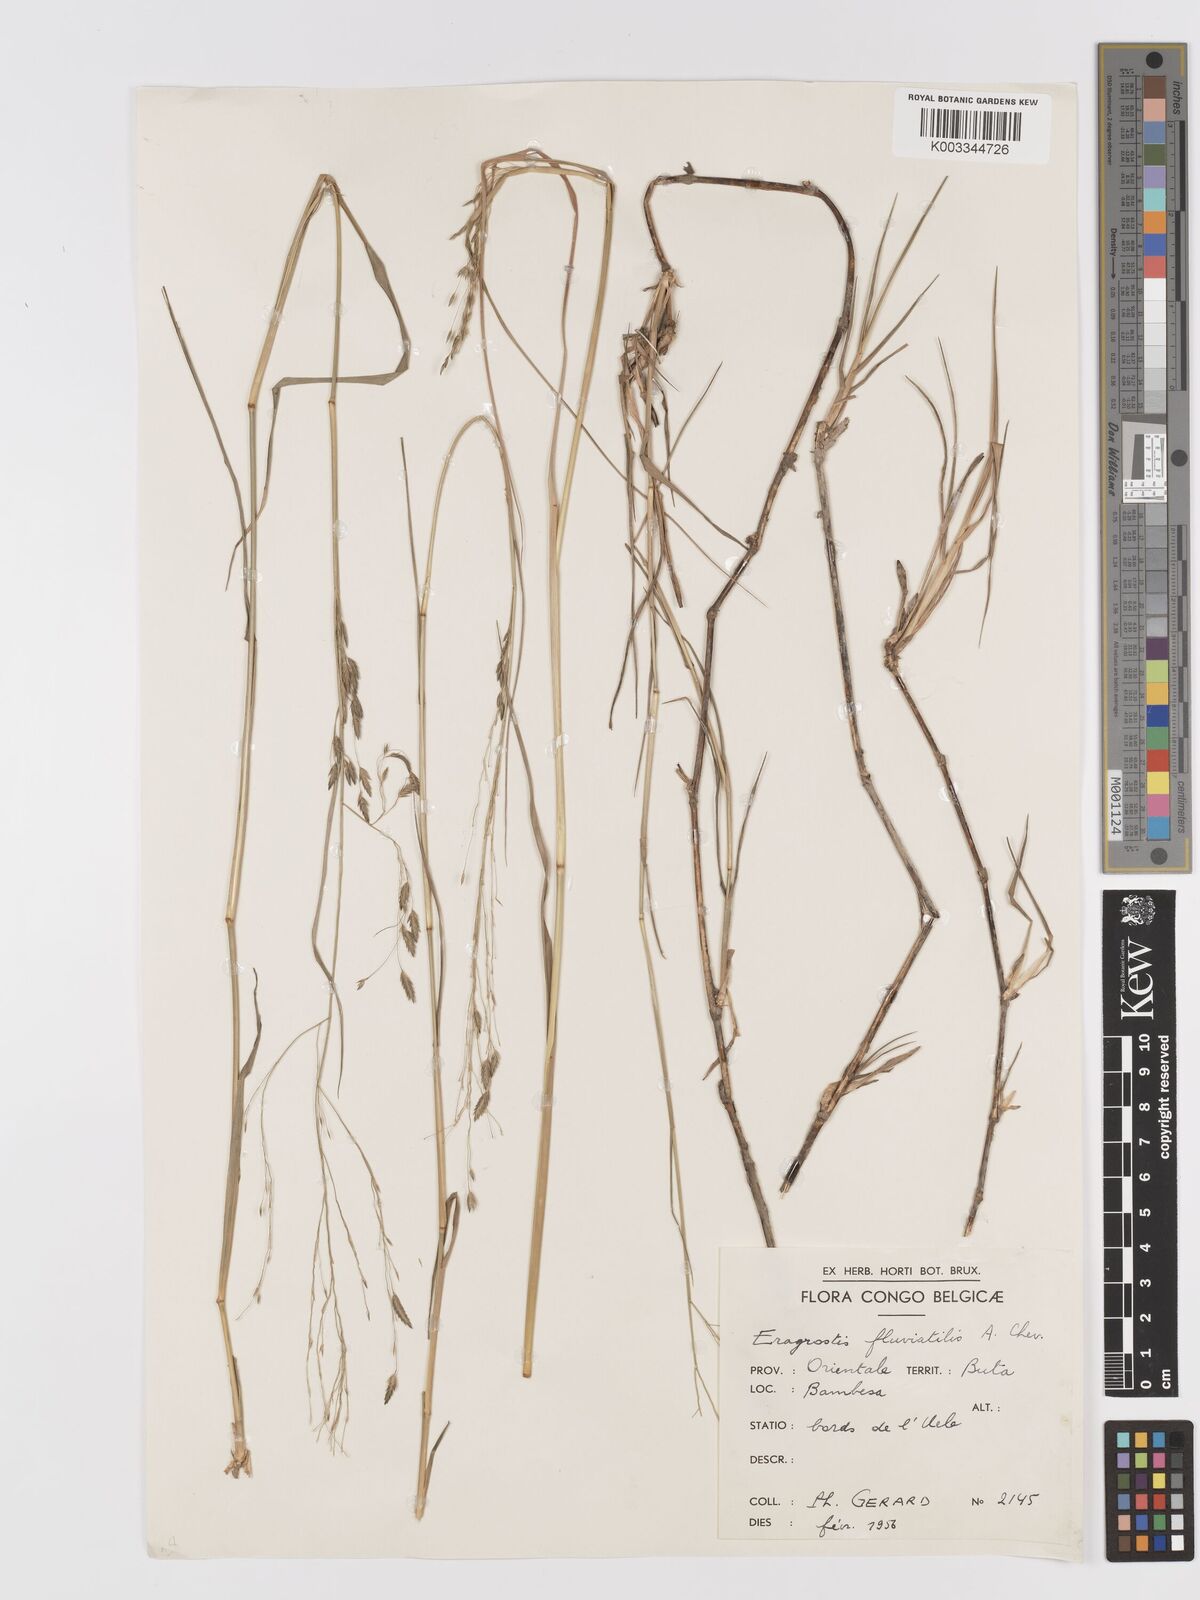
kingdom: Plantae
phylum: Tracheophyta
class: Liliopsida
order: Poales
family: Poaceae
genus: Eragrostis
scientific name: Eragrostis barteri
